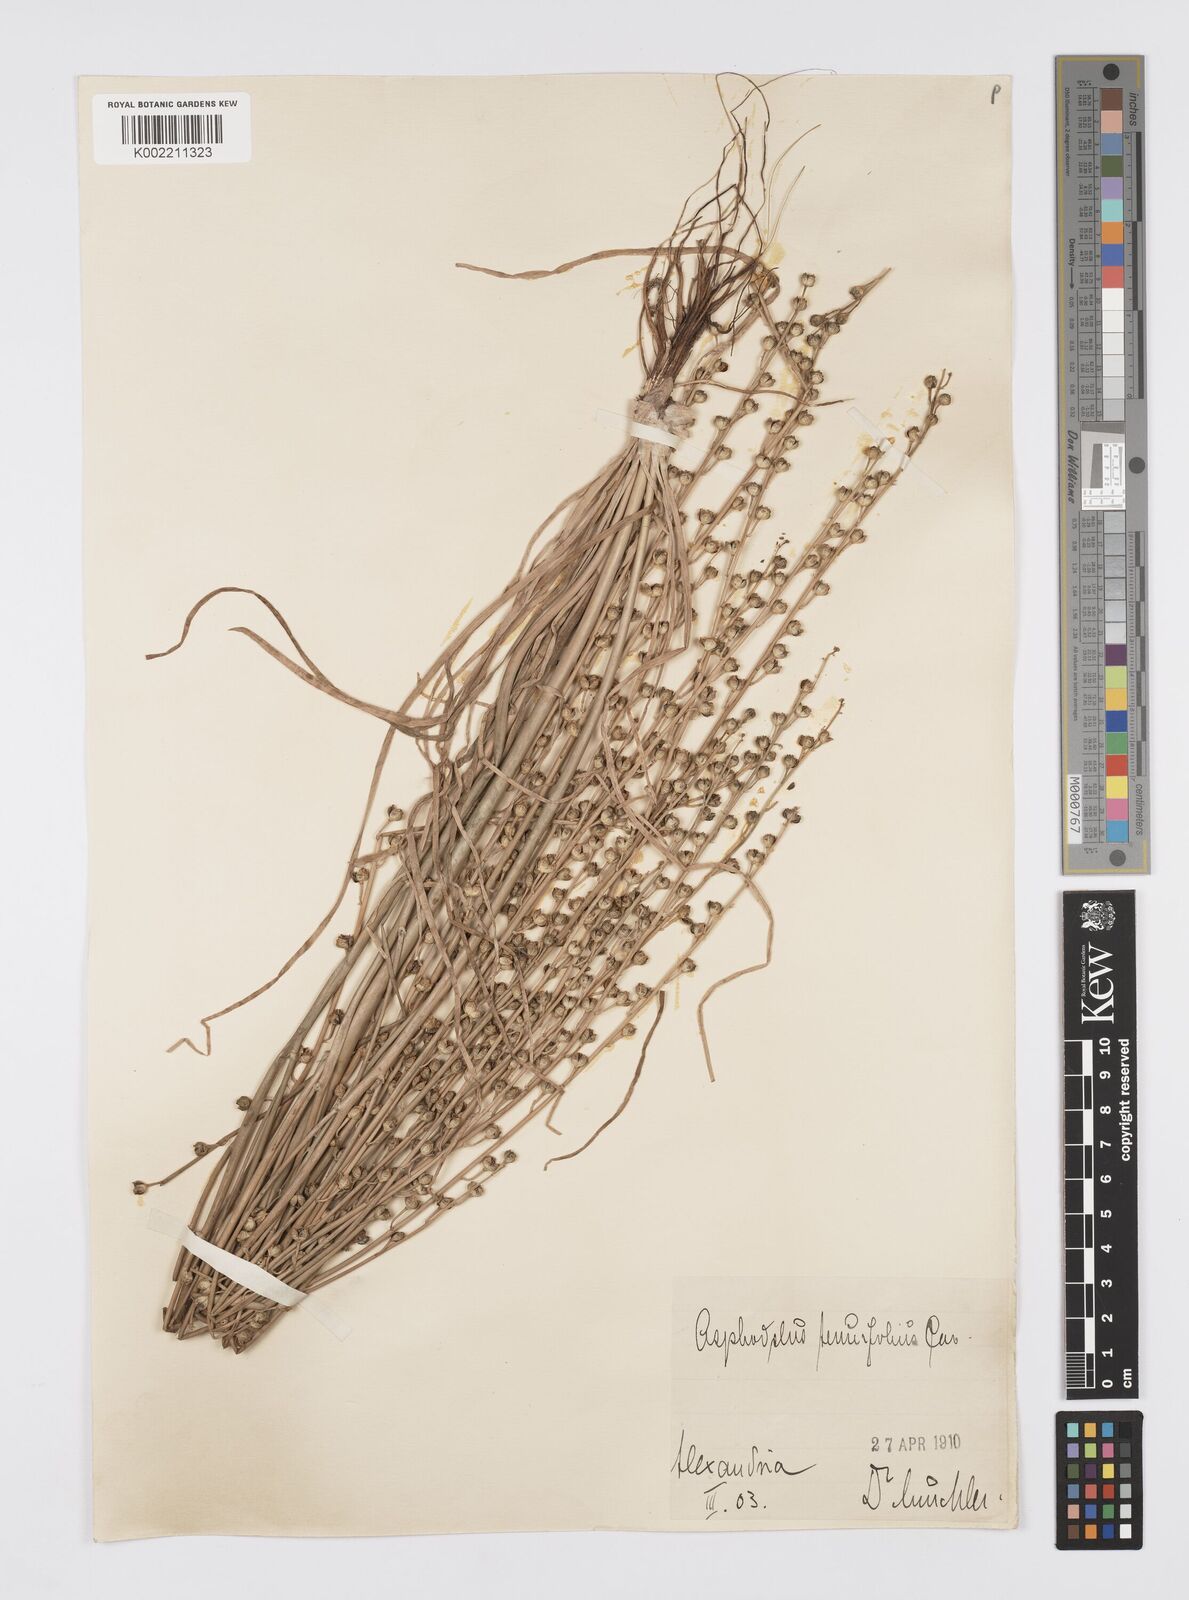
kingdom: Plantae
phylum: Tracheophyta
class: Liliopsida
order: Asparagales
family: Asphodelaceae
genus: Asphodelus
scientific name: Asphodelus tenuifolius
